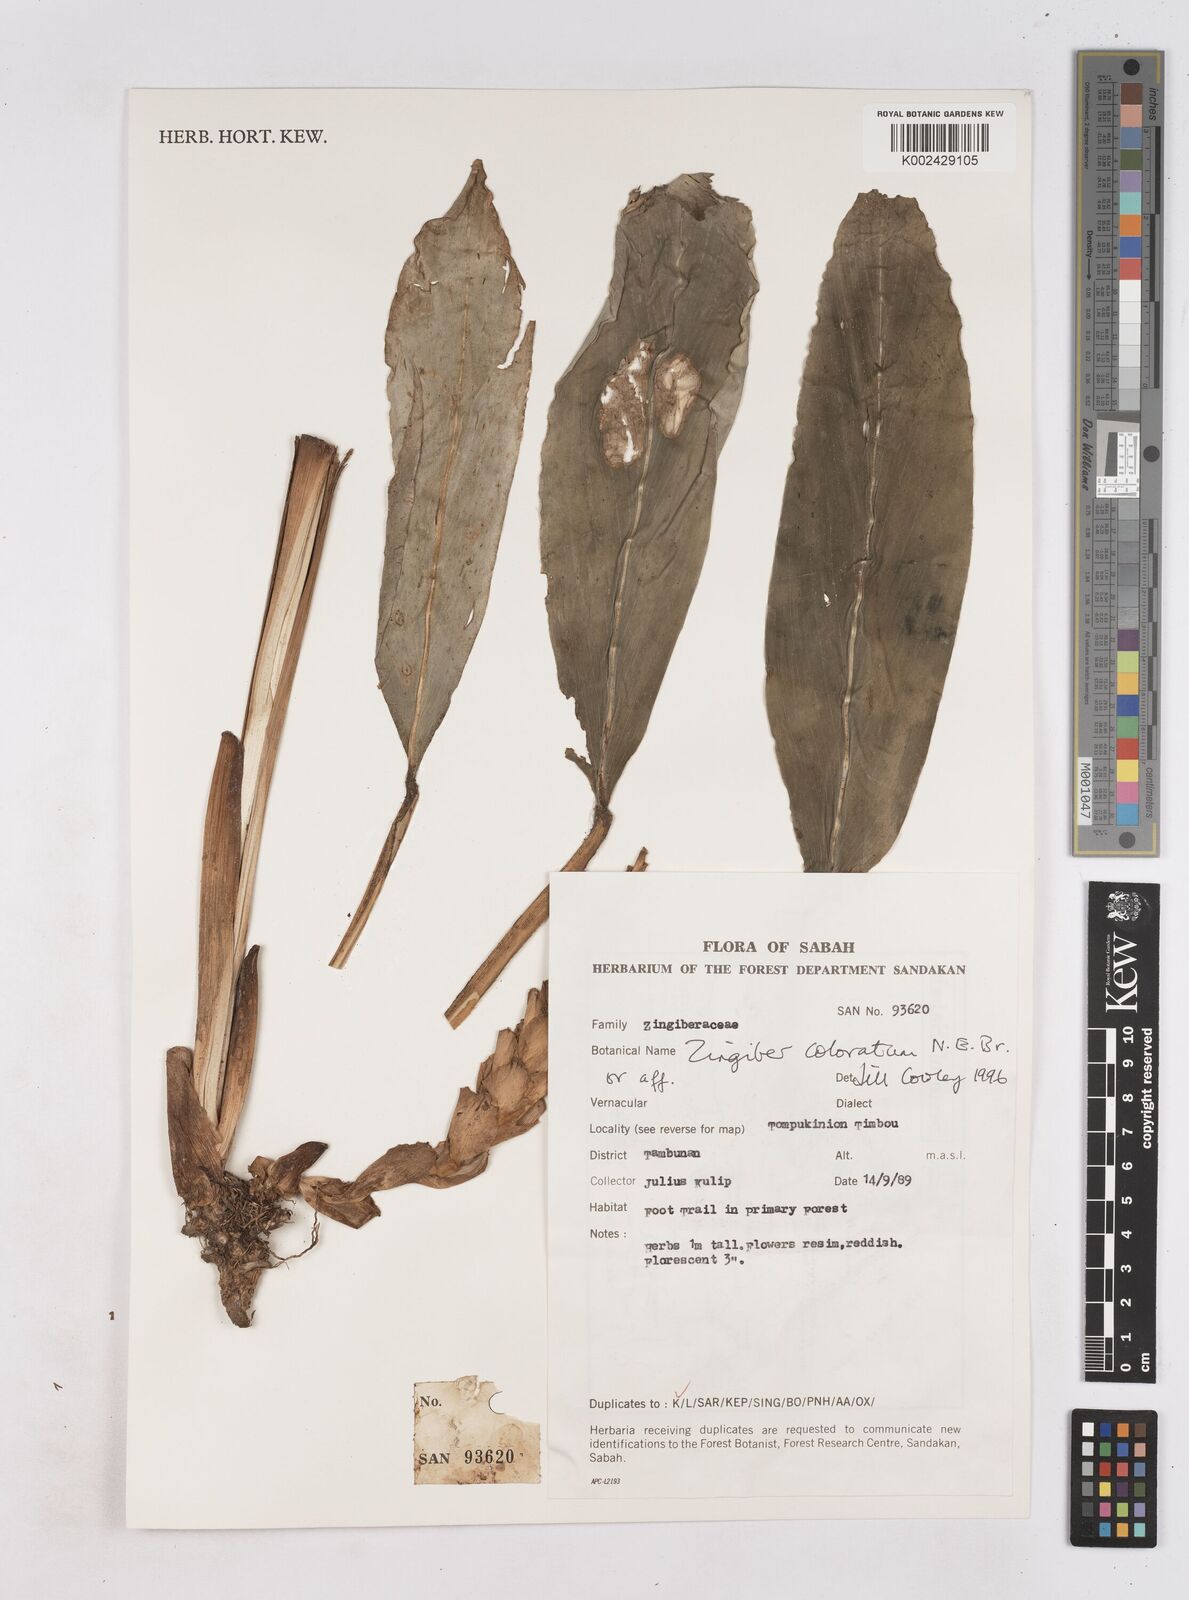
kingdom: Plantae
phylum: Tracheophyta
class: Liliopsida
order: Zingiberales
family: Zingiberaceae
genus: Zingiber
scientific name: Zingiber coloratum
